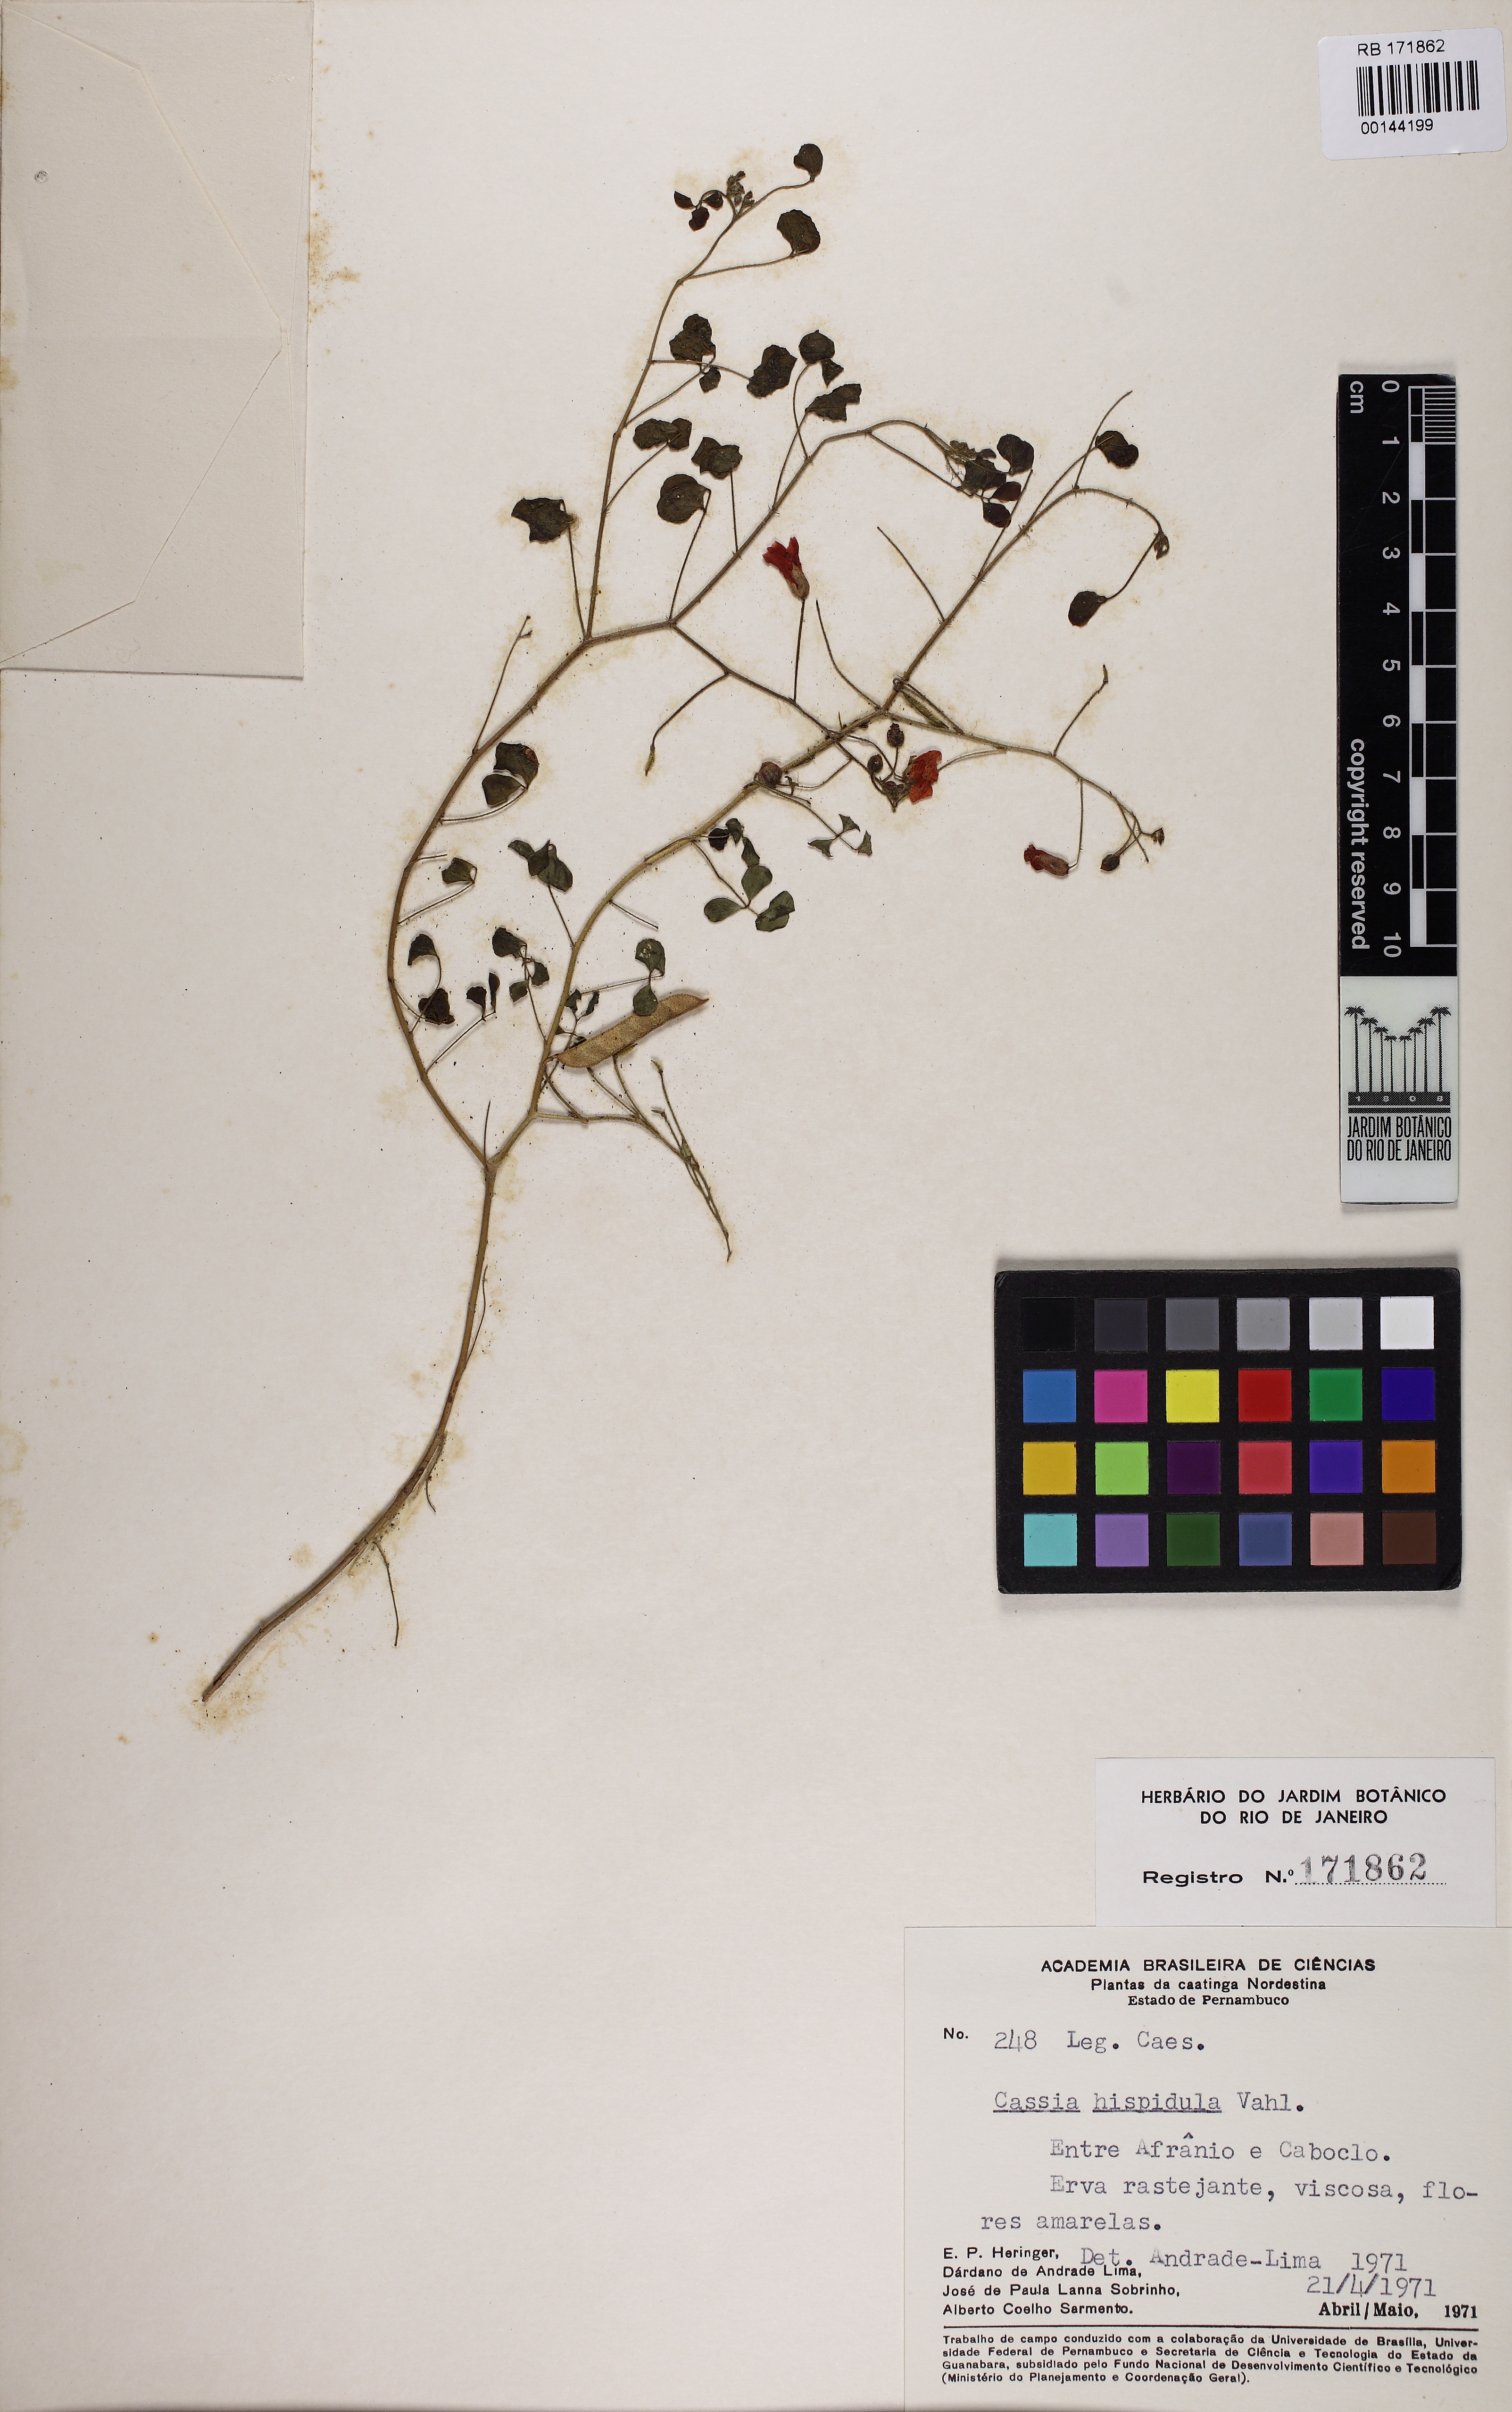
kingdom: Plantae
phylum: Tracheophyta
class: Magnoliopsida
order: Fabales
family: Fabaceae
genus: Chamaecrista
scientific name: Chamaecrista hispidula
